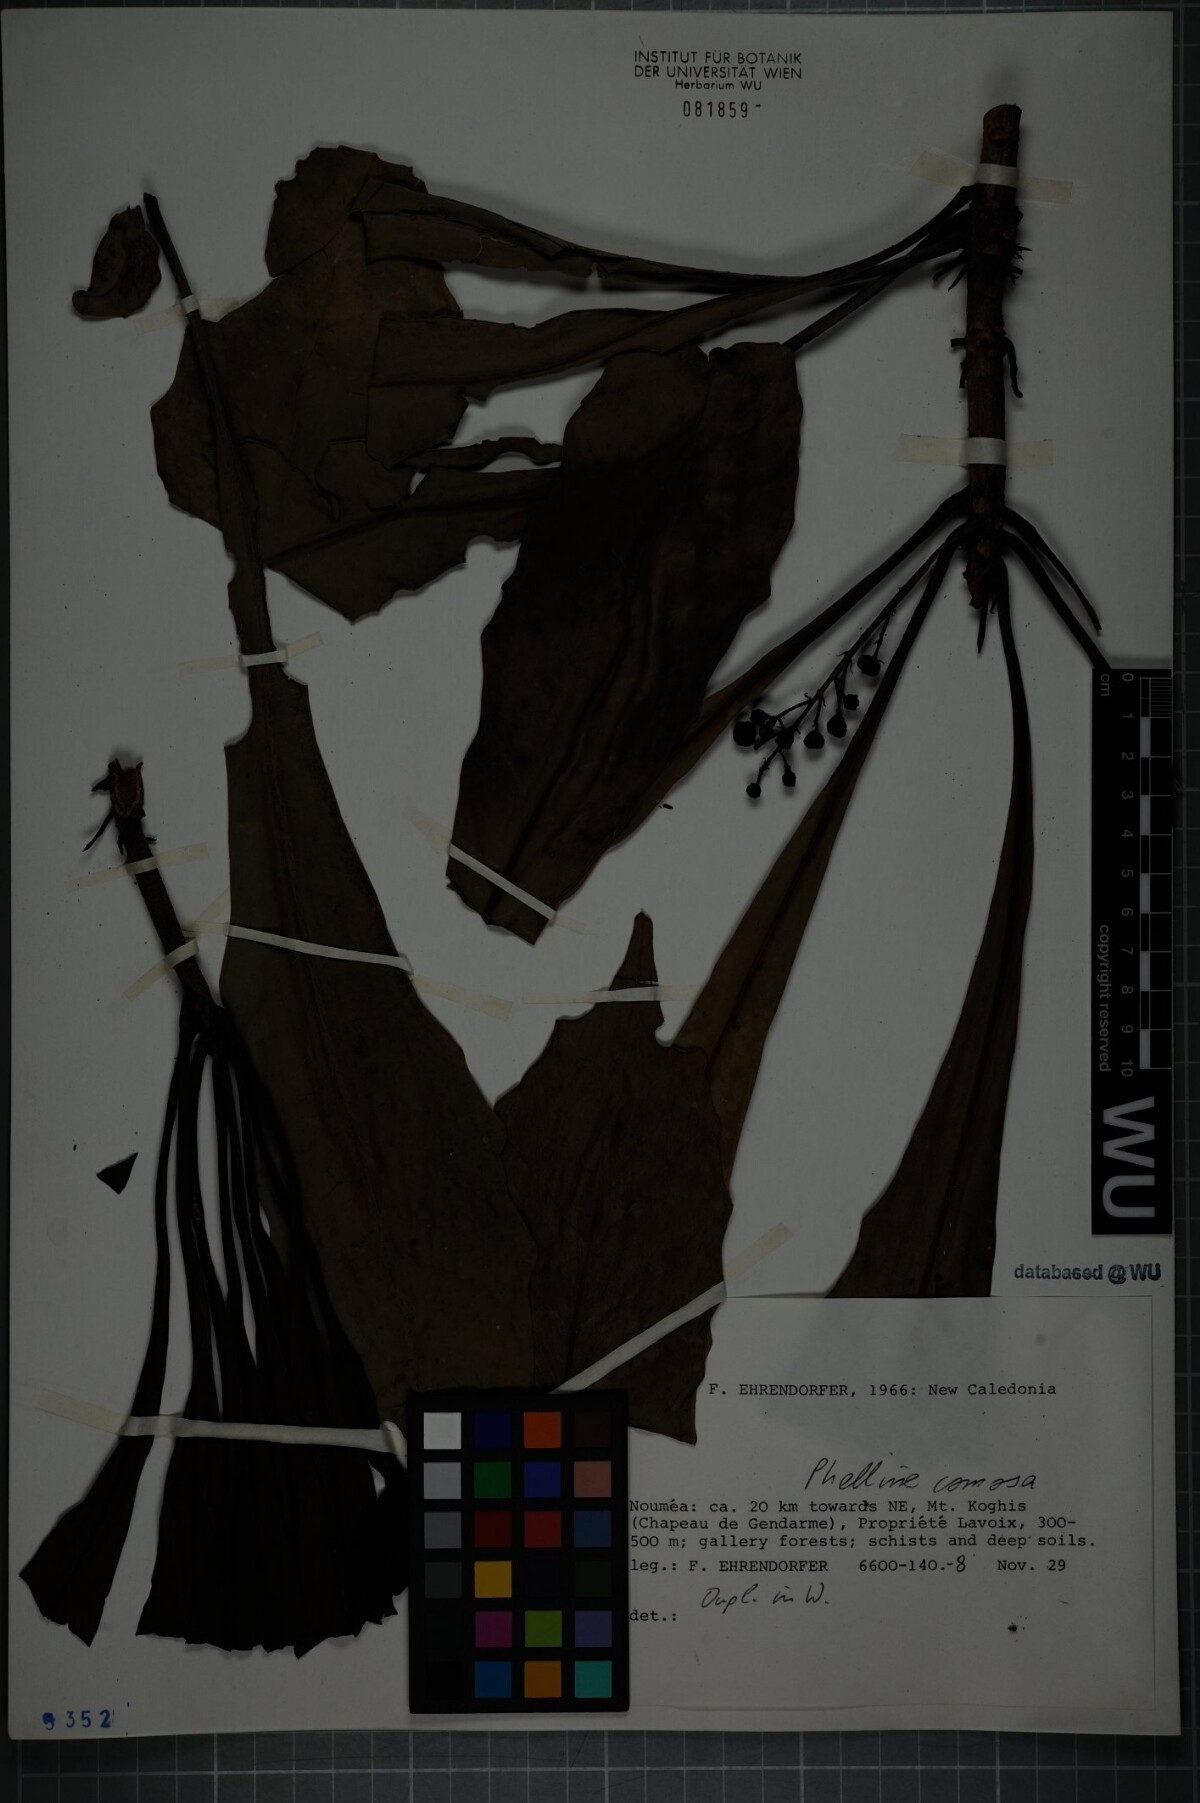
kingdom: Plantae
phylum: Tracheophyta
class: Magnoliopsida
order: Asterales
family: Phellinaceae
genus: Phelline
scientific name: Phelline comosa
